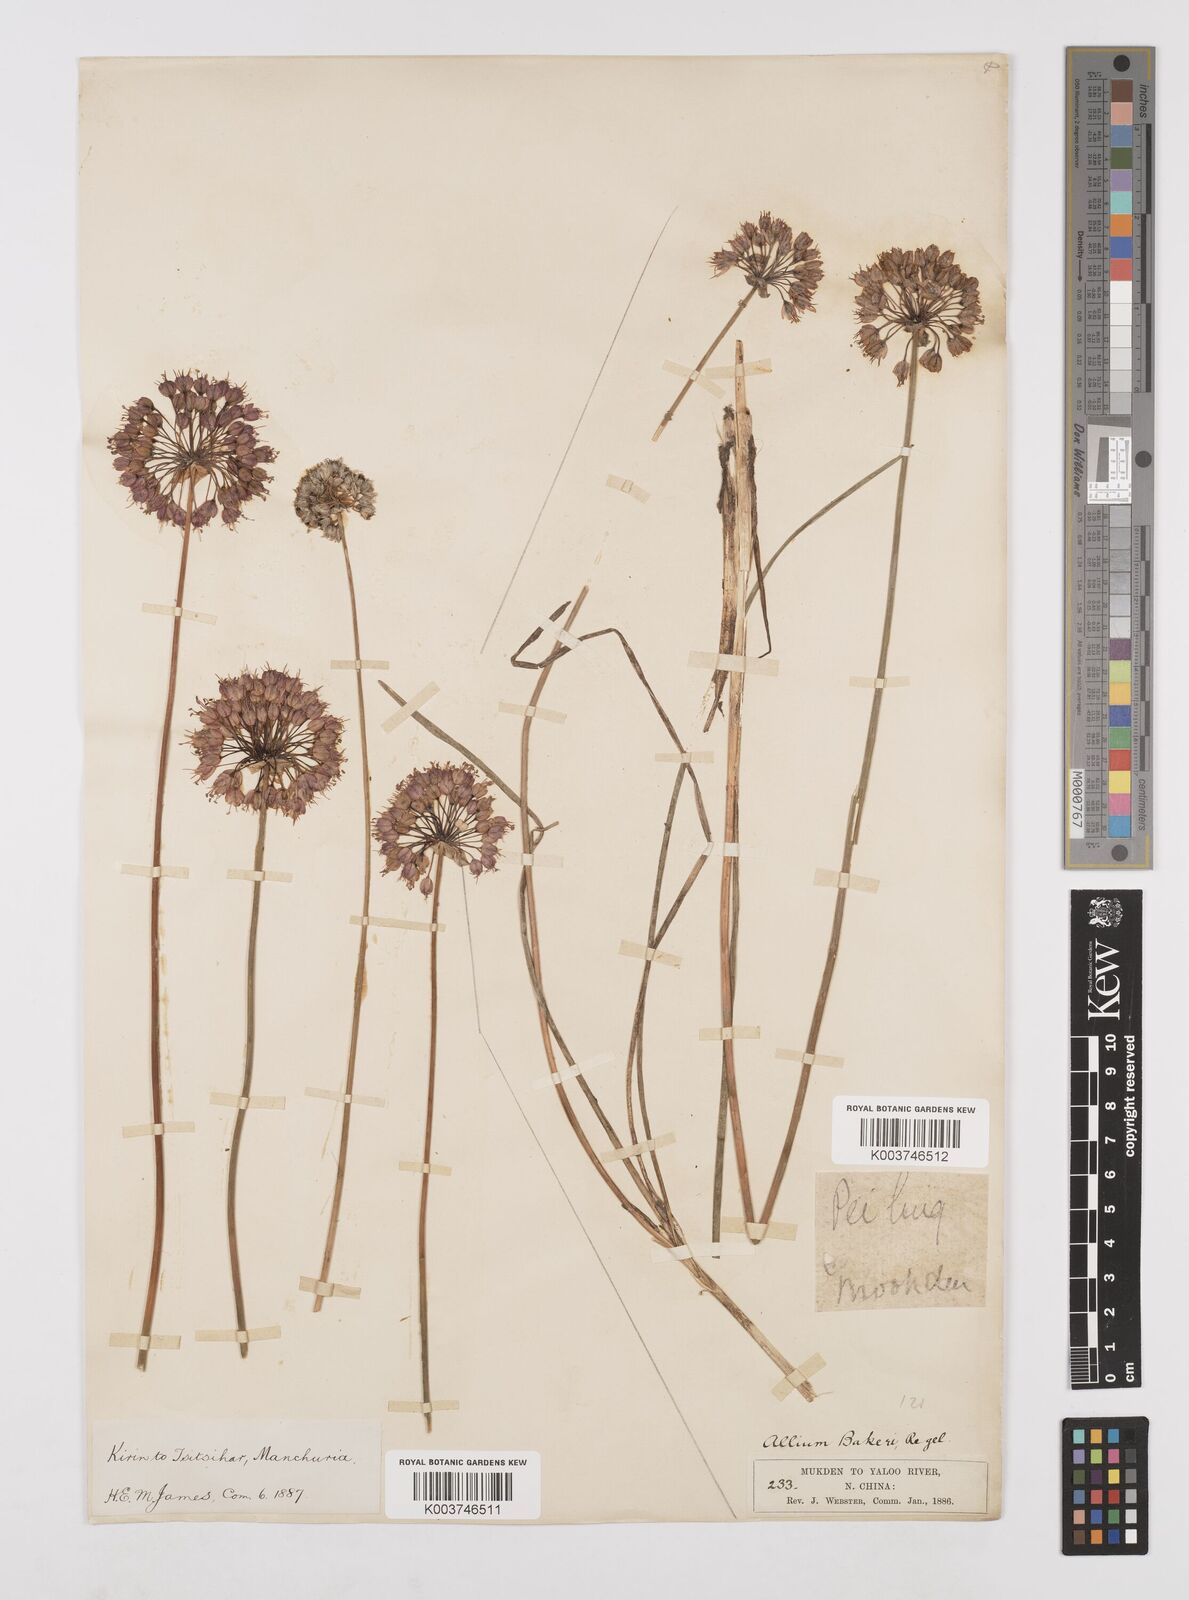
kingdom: Plantae
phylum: Tracheophyta
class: Liliopsida
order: Asparagales
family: Amaryllidaceae
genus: Allium
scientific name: Allium chinense
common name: Japanese scallion
